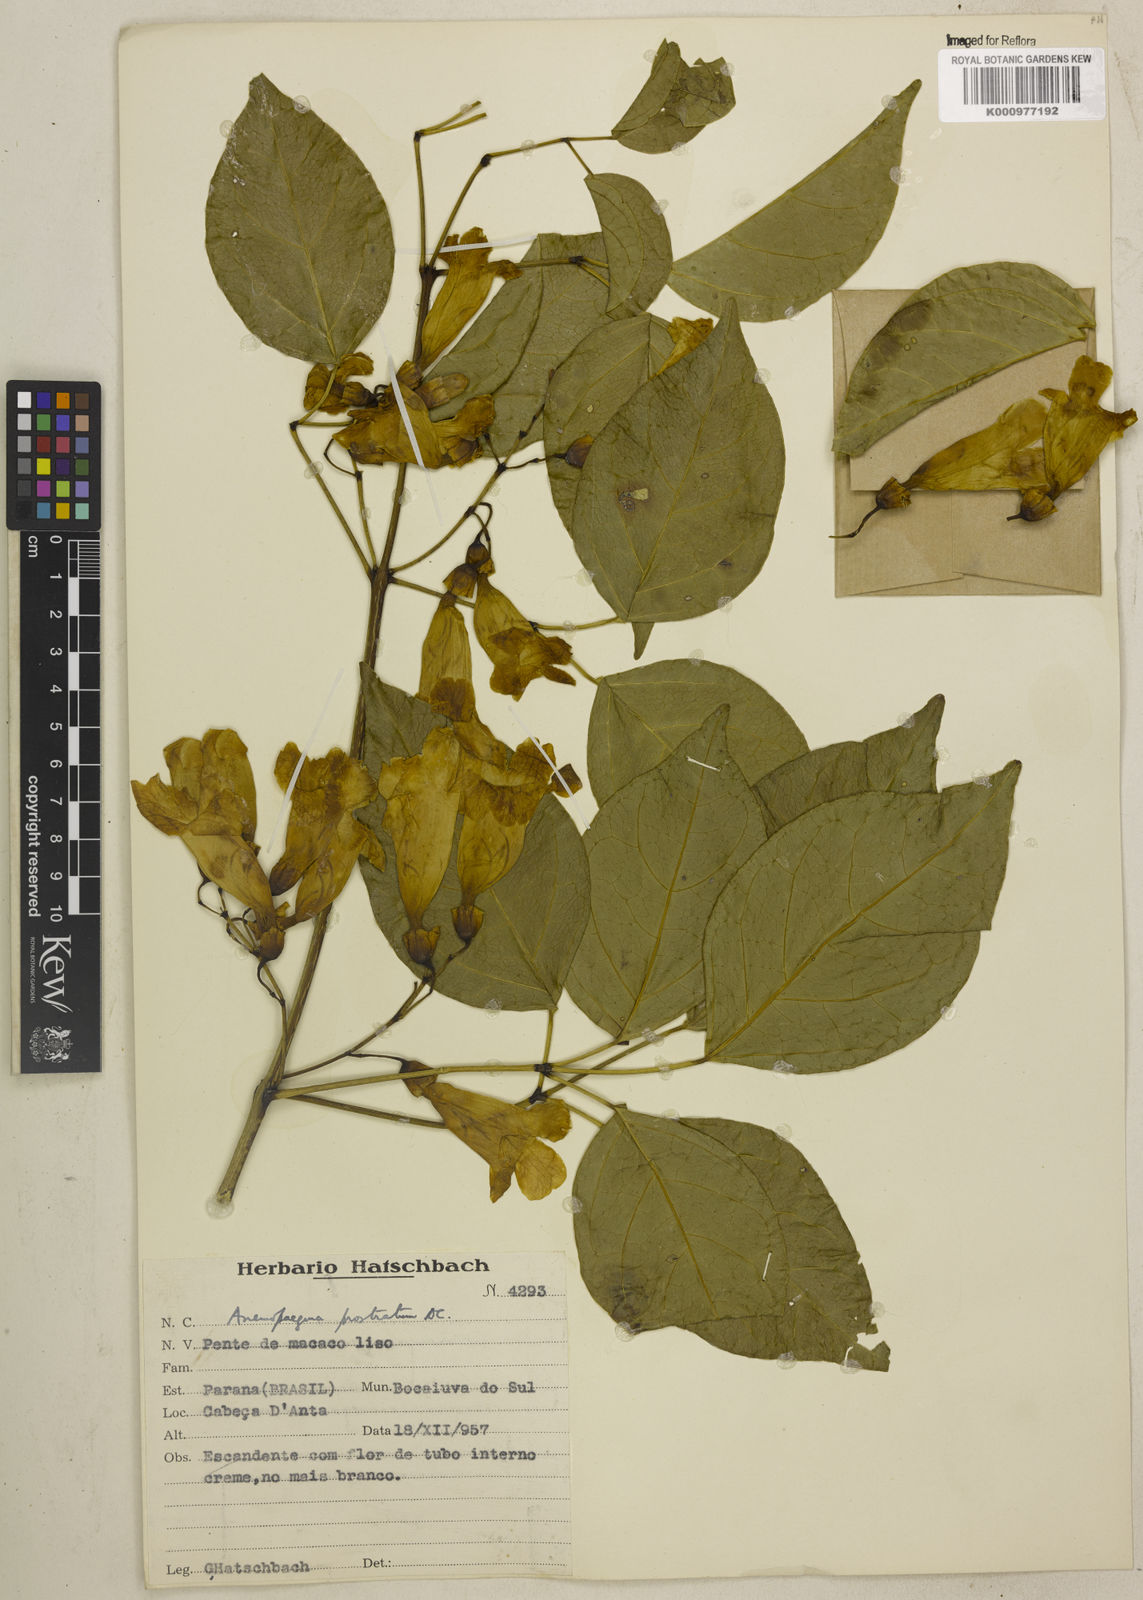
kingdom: Plantae
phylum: Tracheophyta
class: Magnoliopsida
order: Lamiales
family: Bignoniaceae
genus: Anemopaegma
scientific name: Anemopaegma prostratum
